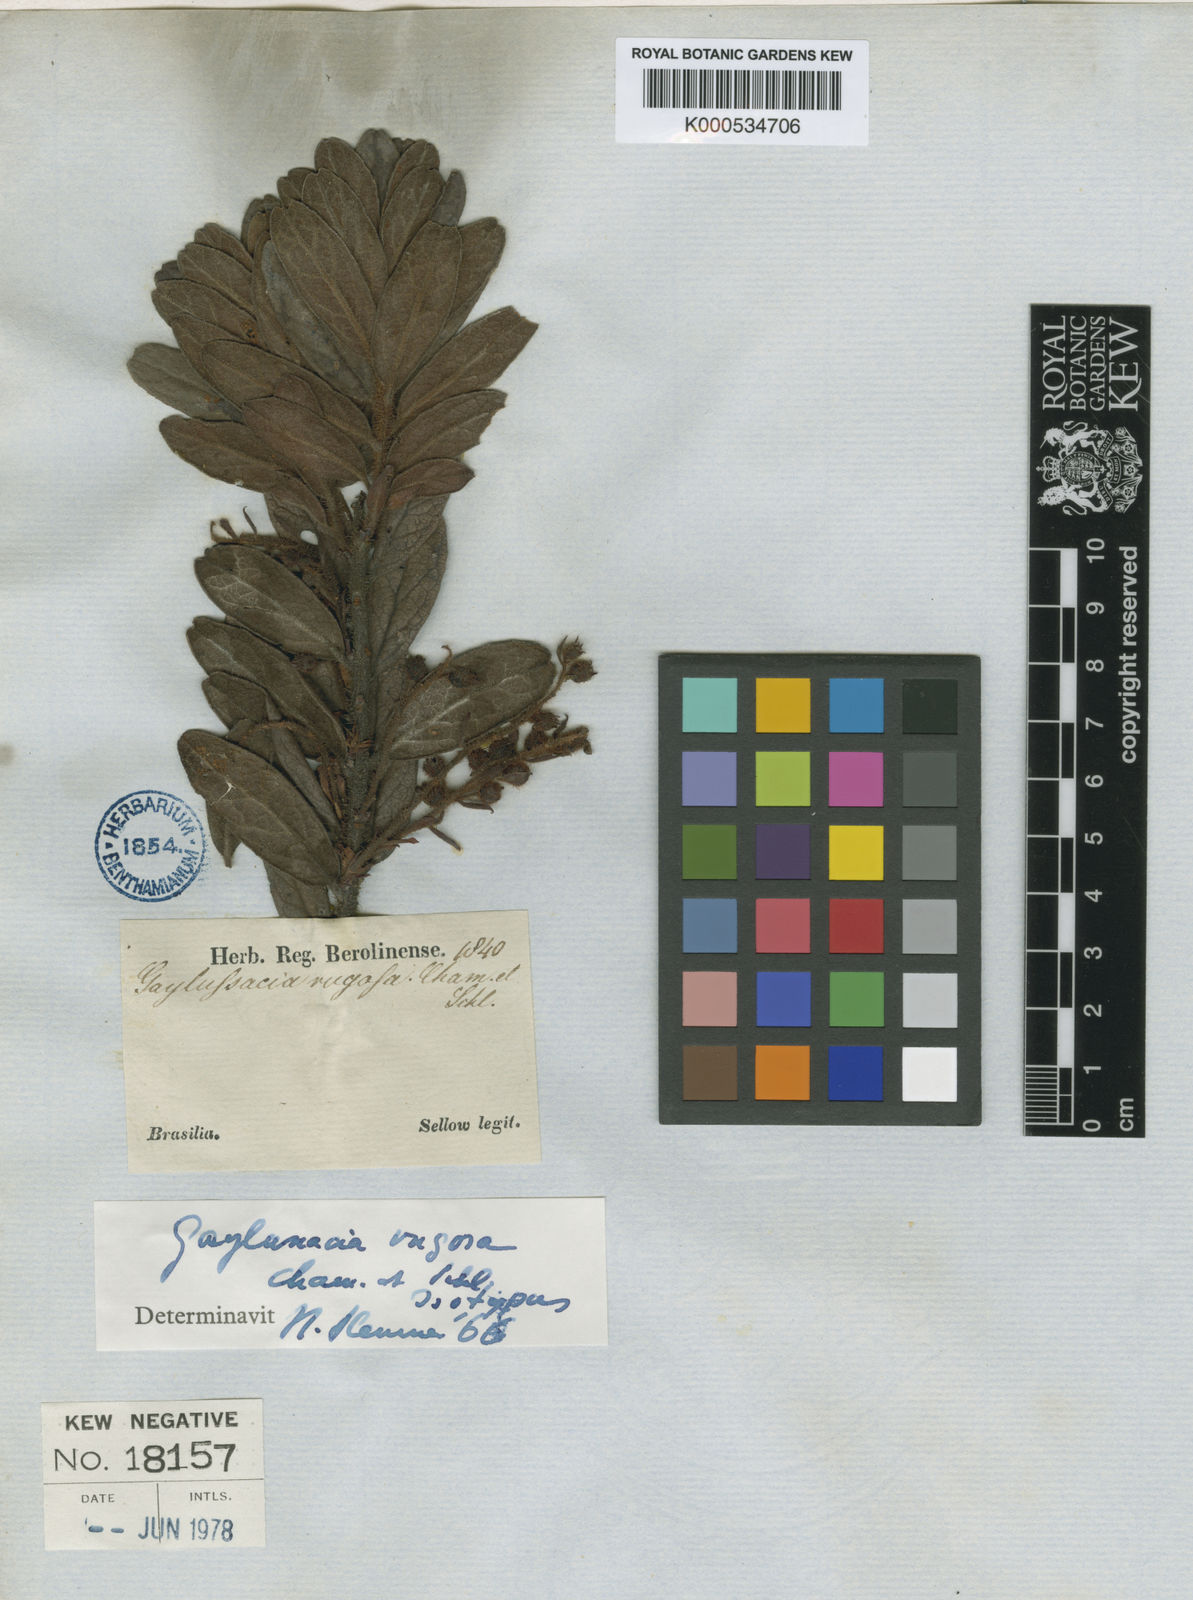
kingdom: Plantae
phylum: Tracheophyta
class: Magnoliopsida
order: Ericales
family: Ericaceae
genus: Gaylussacia
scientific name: Gaylussacia rugosa
